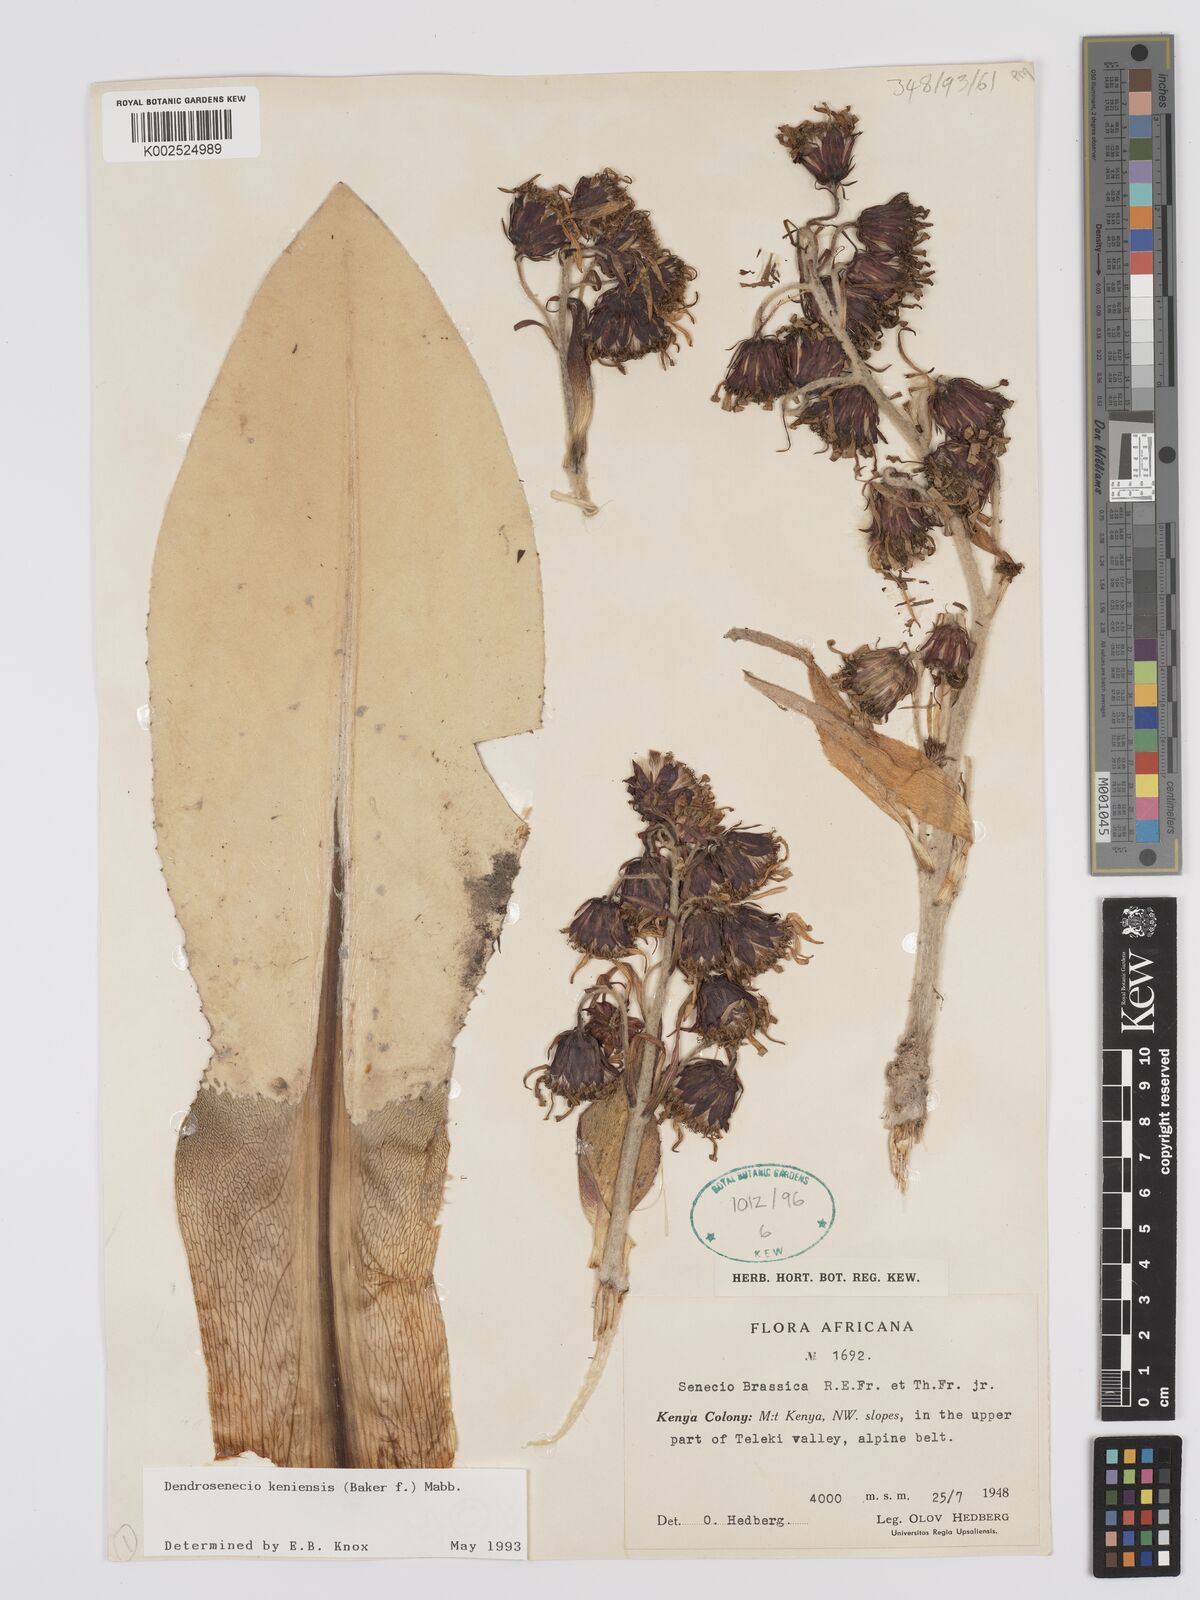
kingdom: Plantae
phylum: Tracheophyta
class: Magnoliopsida
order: Asterales
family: Asteraceae
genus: Dendrosenecio
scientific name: Dendrosenecio keniensis
